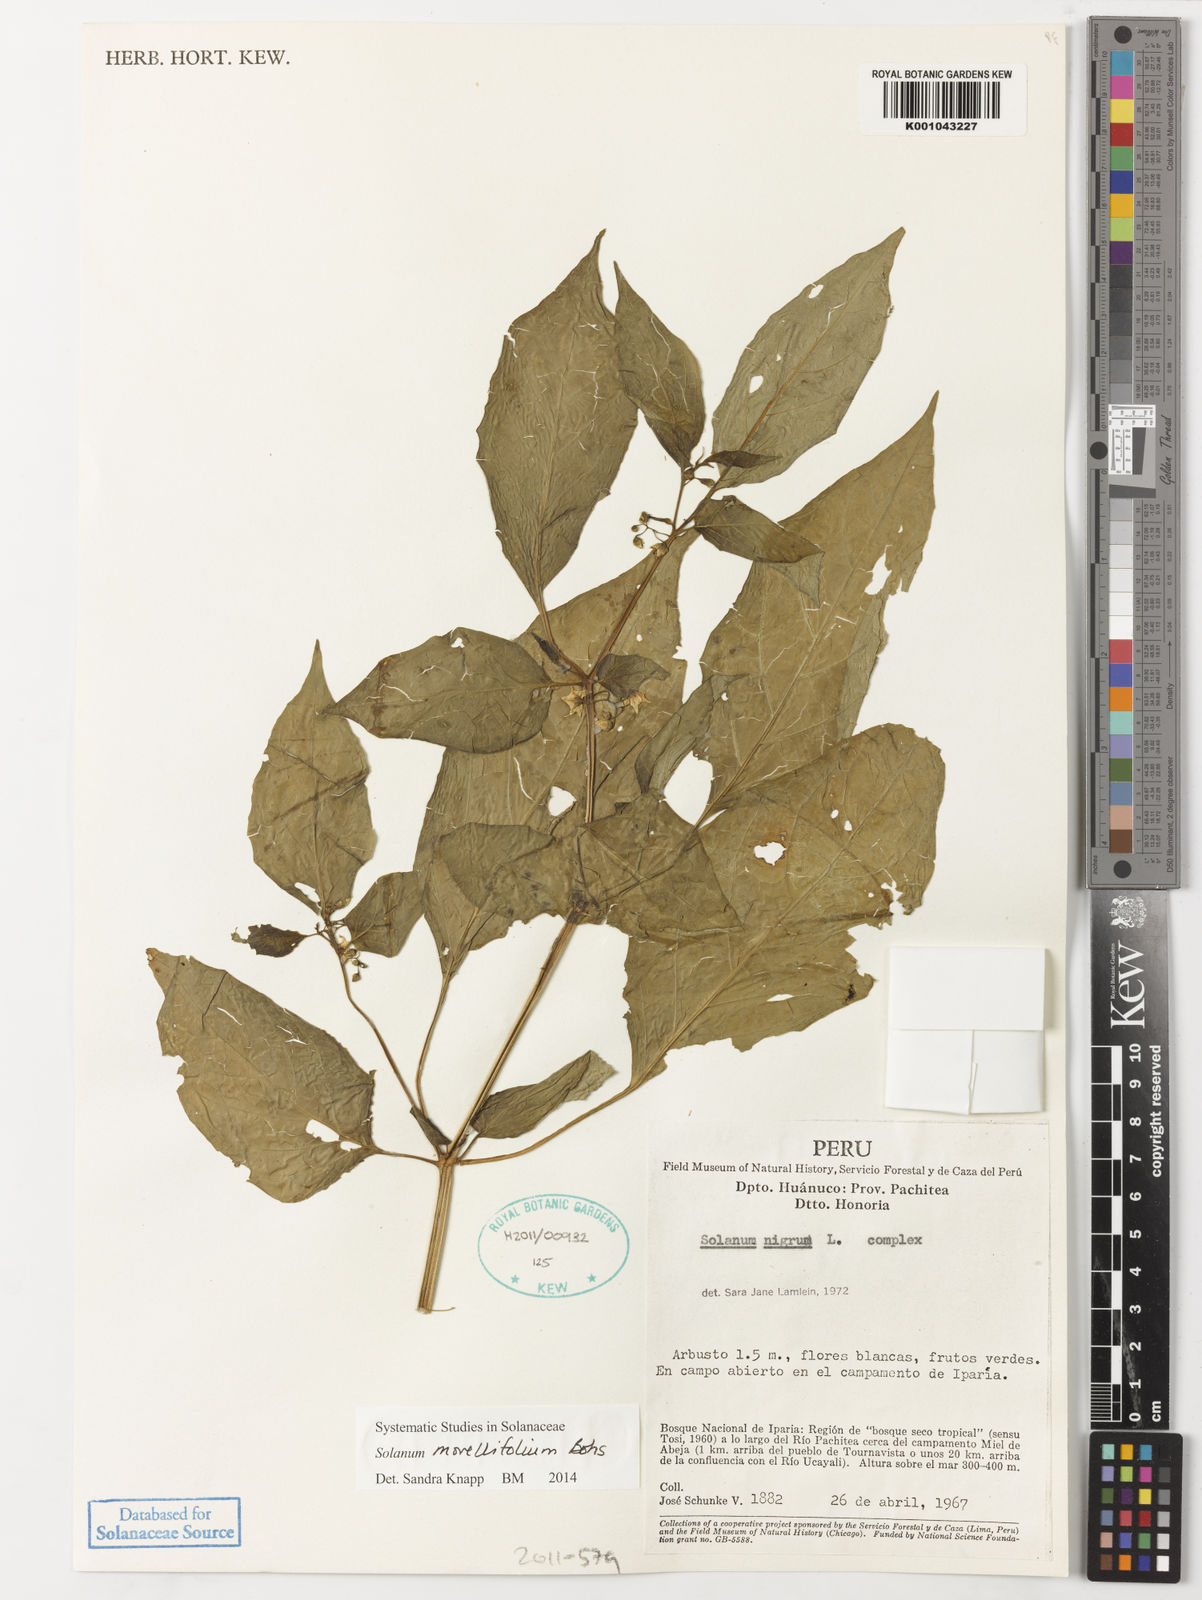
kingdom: Plantae
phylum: Tracheophyta
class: Magnoliopsida
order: Solanales
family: Solanaceae
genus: Solanum
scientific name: Solanum morellifolium
